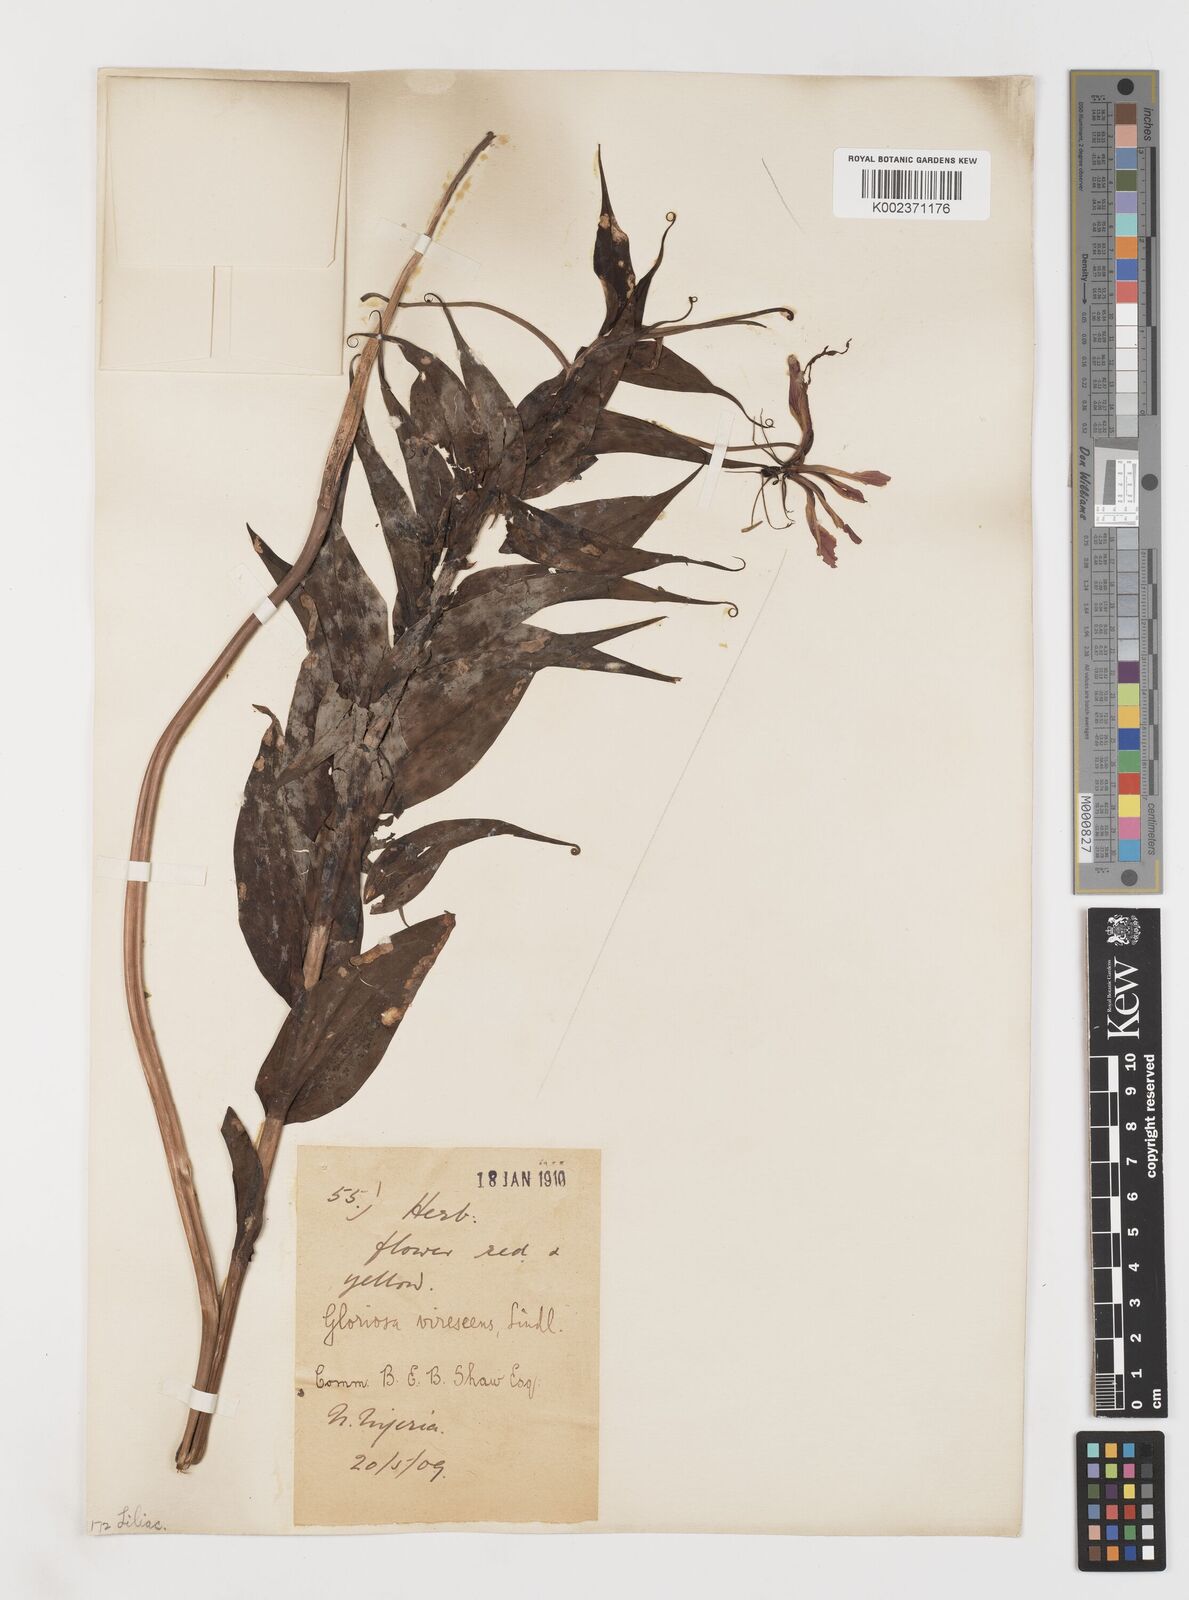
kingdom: Plantae
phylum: Tracheophyta
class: Liliopsida
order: Liliales
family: Colchicaceae
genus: Gloriosa
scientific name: Gloriosa simplex
